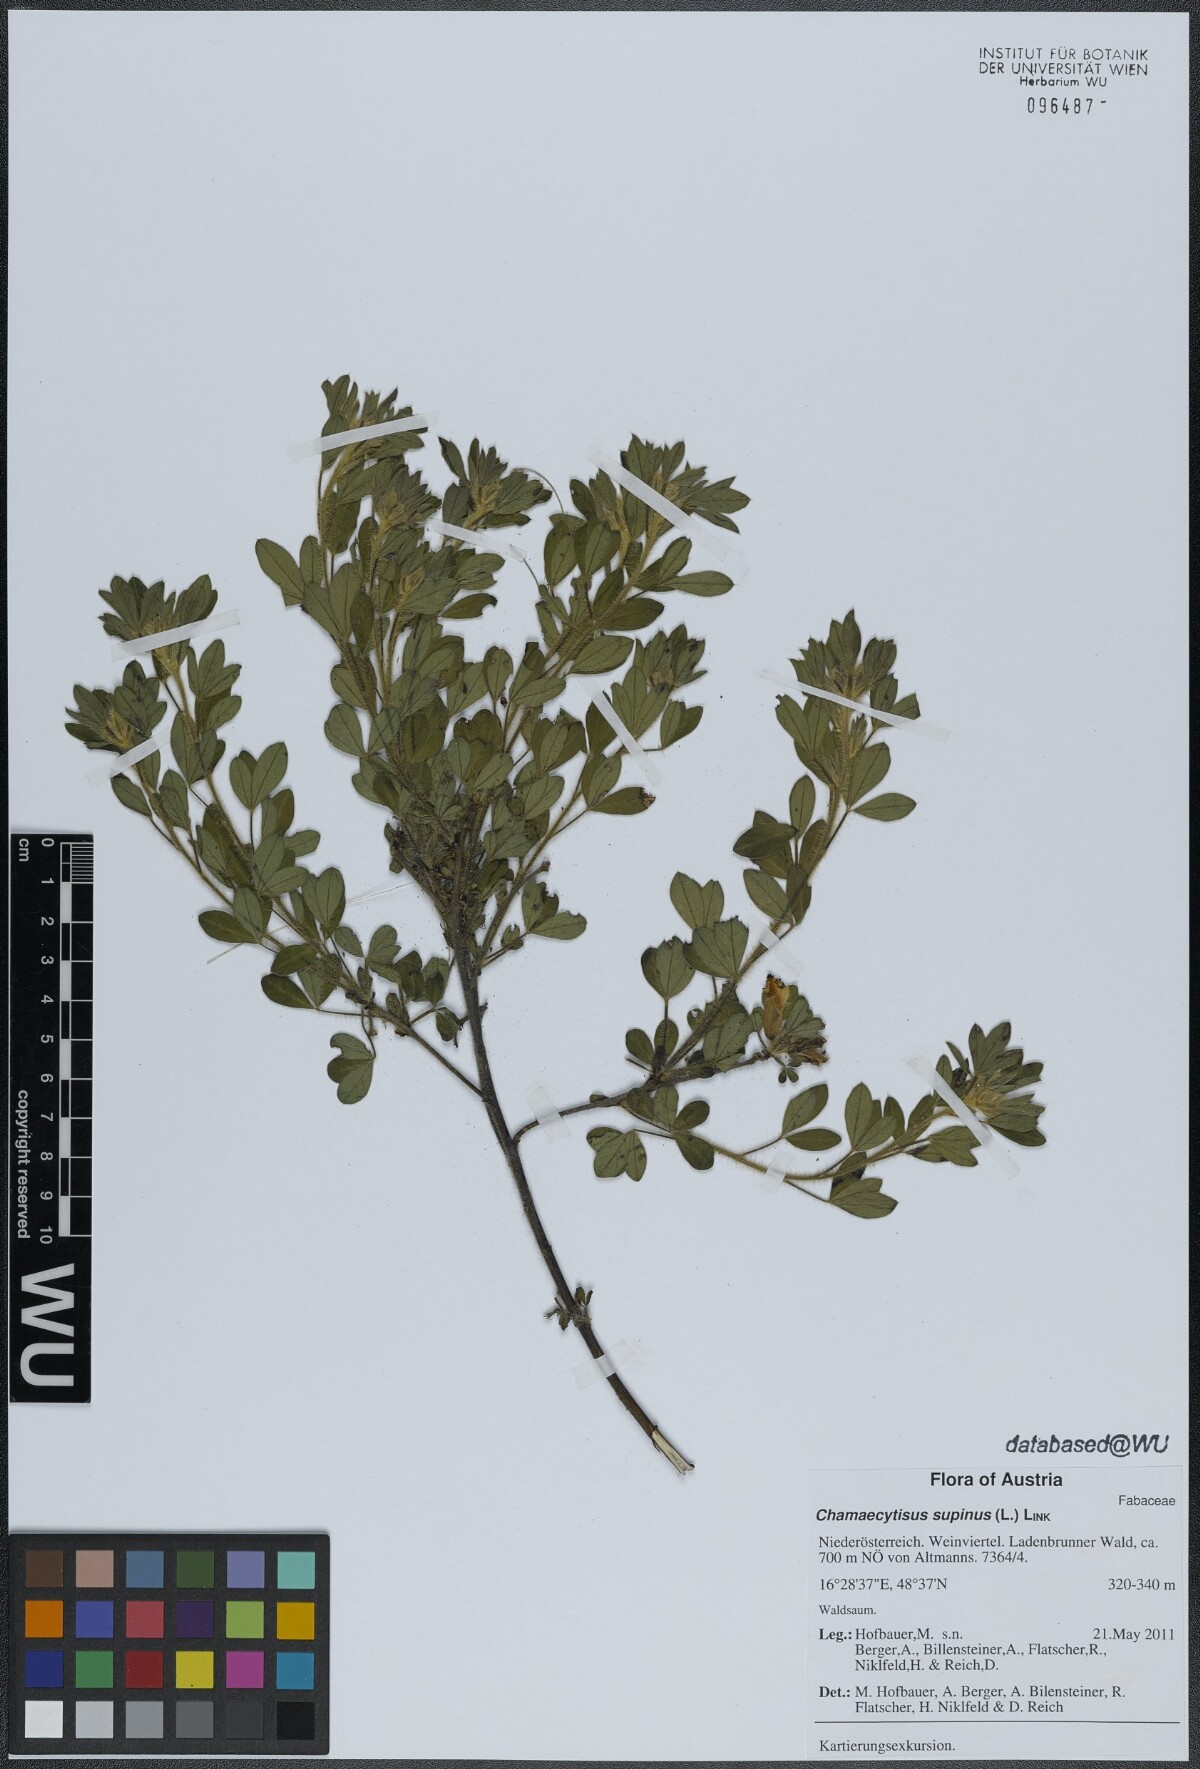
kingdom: Plantae
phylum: Tracheophyta
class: Magnoliopsida
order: Fabales
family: Fabaceae
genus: Chamaecytisus
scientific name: Chamaecytisus supinus
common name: Clustered broom
